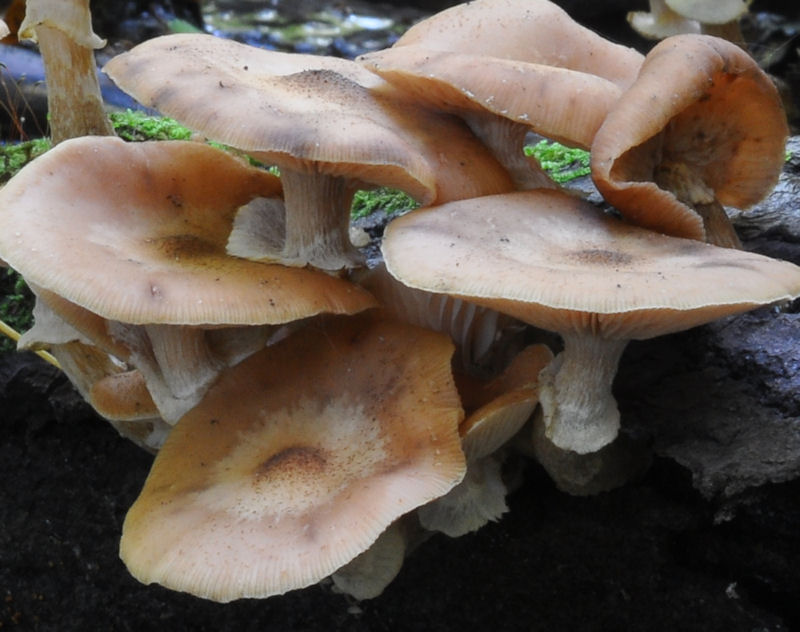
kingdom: Fungi
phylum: Basidiomycota
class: Agaricomycetes
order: Agaricales
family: Physalacriaceae
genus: Armillaria
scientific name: Armillaria lutea
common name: køllestokket honningsvamp
